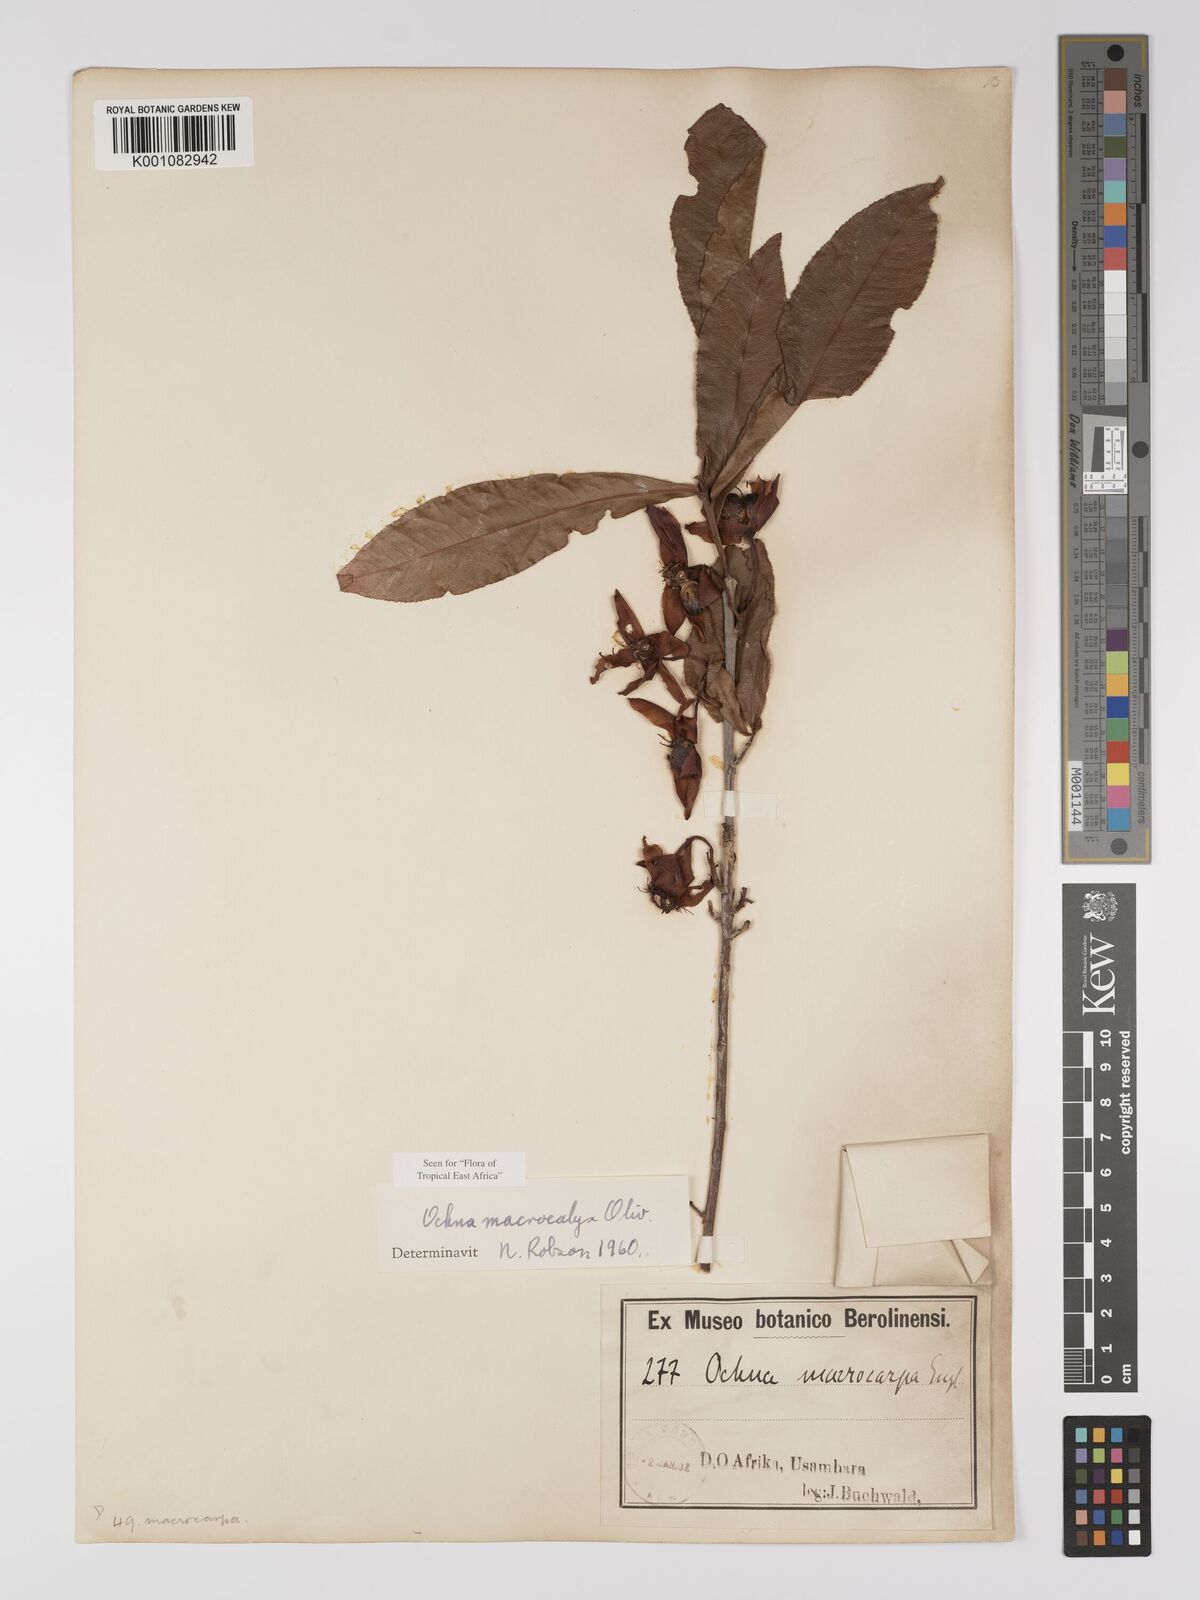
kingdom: Plantae
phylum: Tracheophyta
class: Magnoliopsida
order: Malpighiales
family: Ochnaceae
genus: Ochna
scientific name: Ochna macrocalyx
